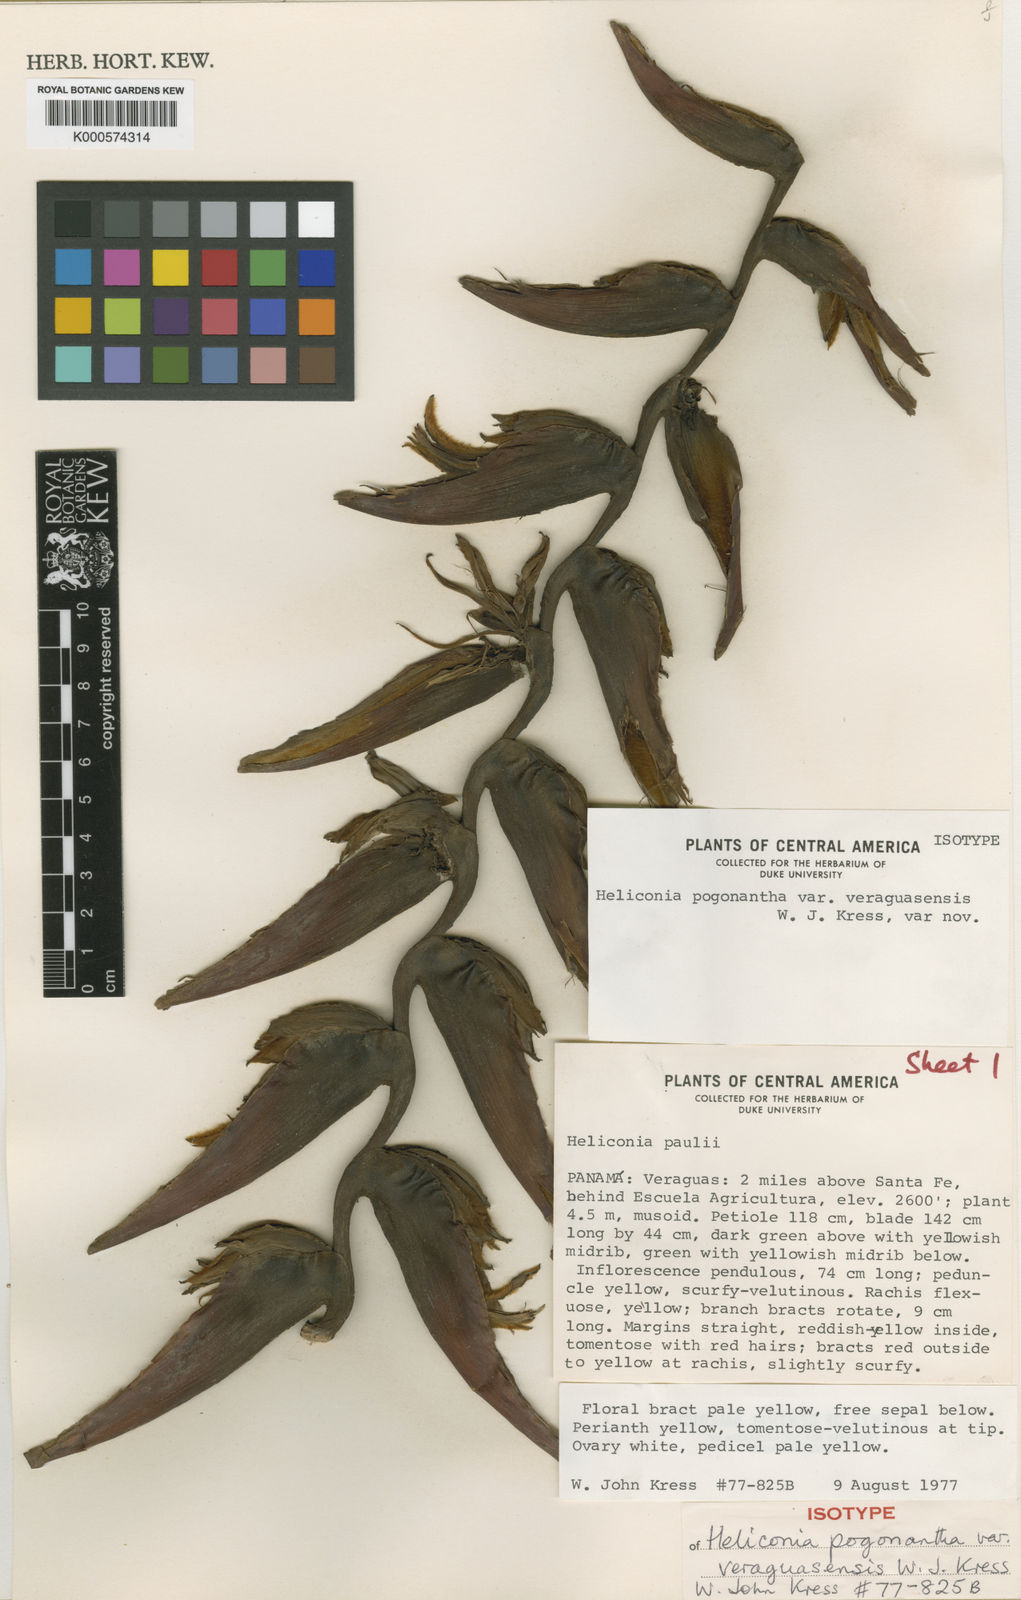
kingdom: Plantae
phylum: Tracheophyta
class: Liliopsida
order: Zingiberales
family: Heliconiaceae
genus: Heliconia
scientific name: Heliconia pogonantha
